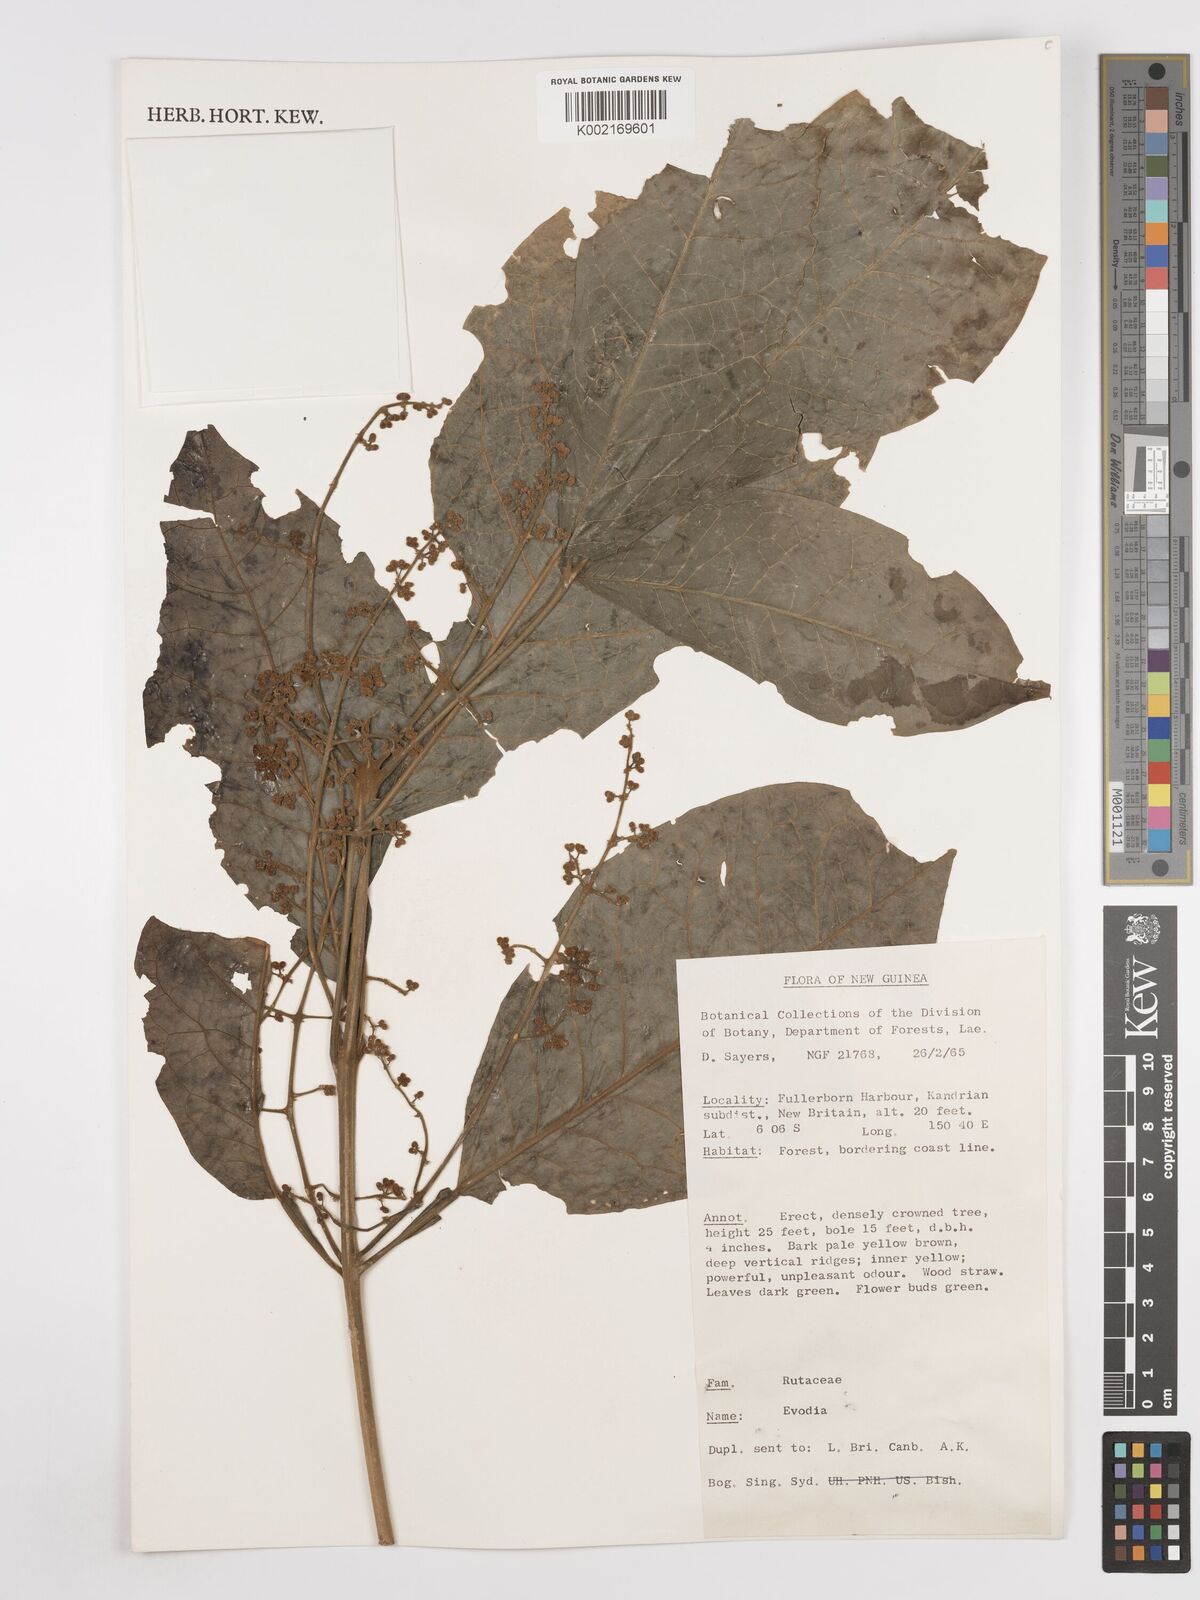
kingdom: Plantae
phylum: Tracheophyta
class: Magnoliopsida
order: Sapindales
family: Rutaceae
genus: Euodia
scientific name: Euodia
